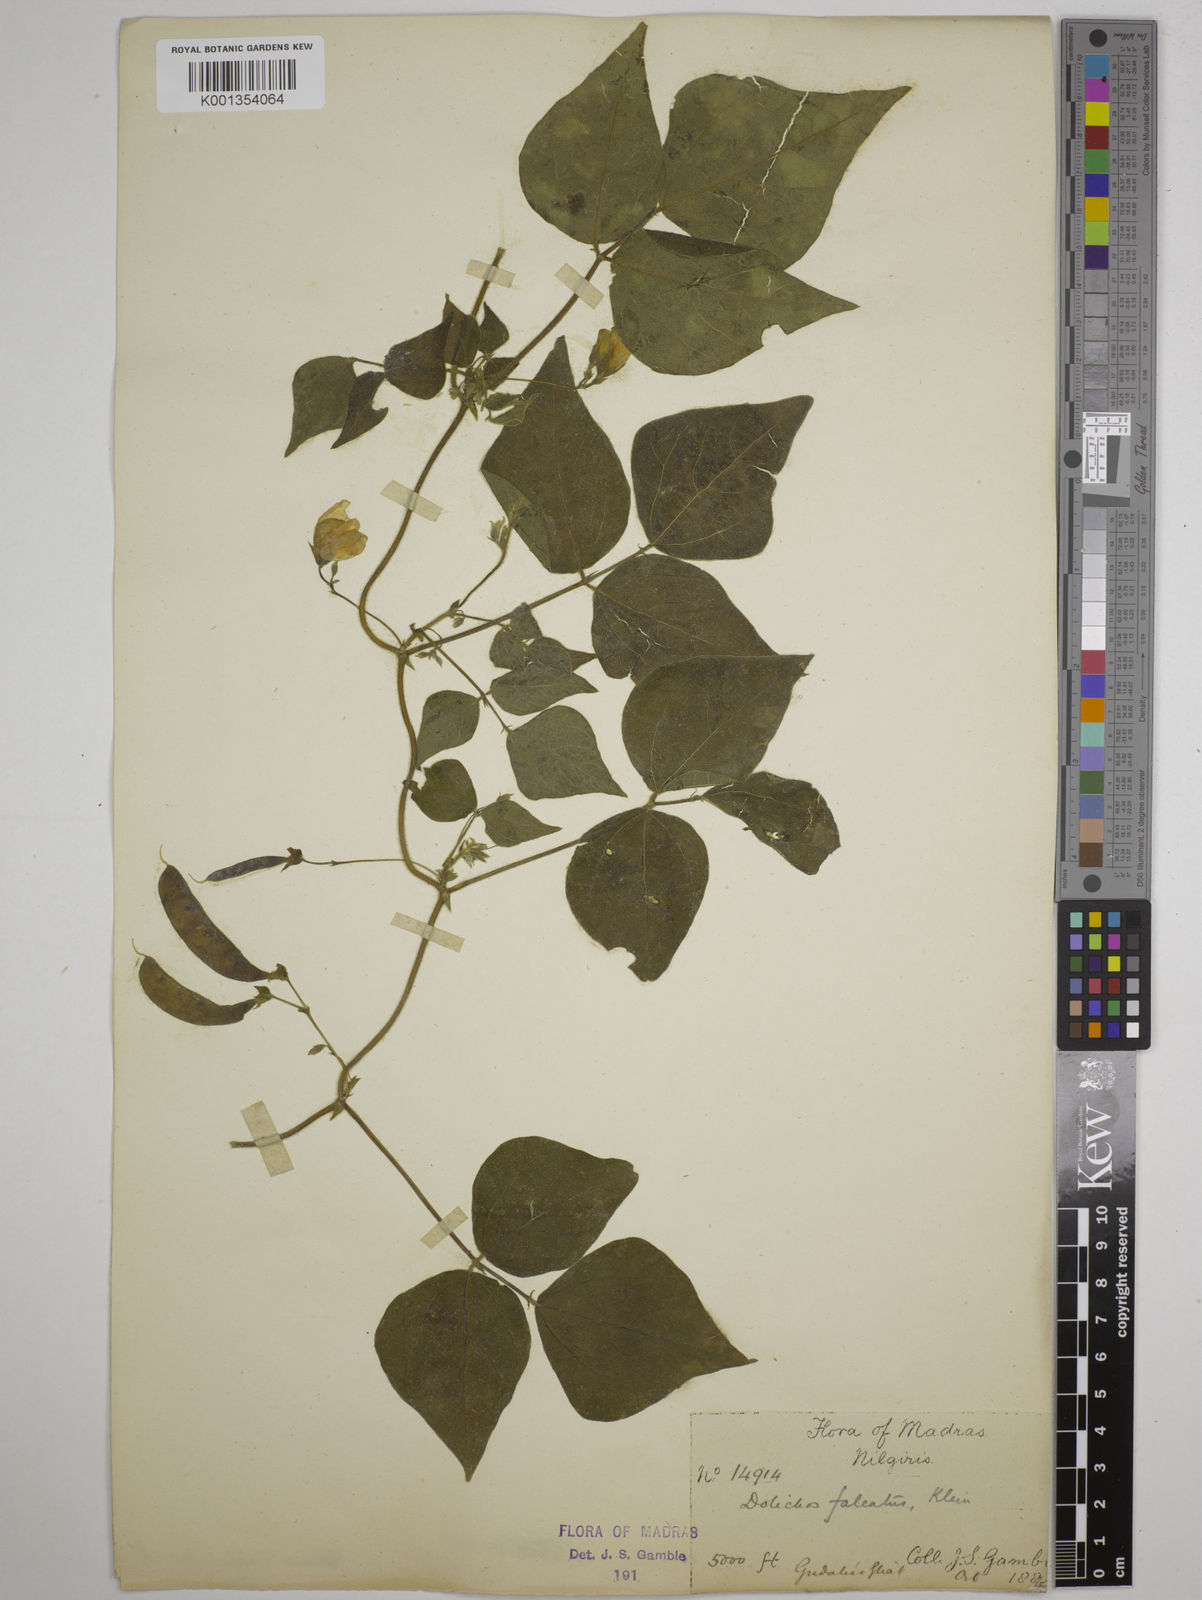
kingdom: Plantae
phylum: Tracheophyta
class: Magnoliopsida
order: Fabales
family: Fabaceae
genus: Dolichos
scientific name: Dolichos
